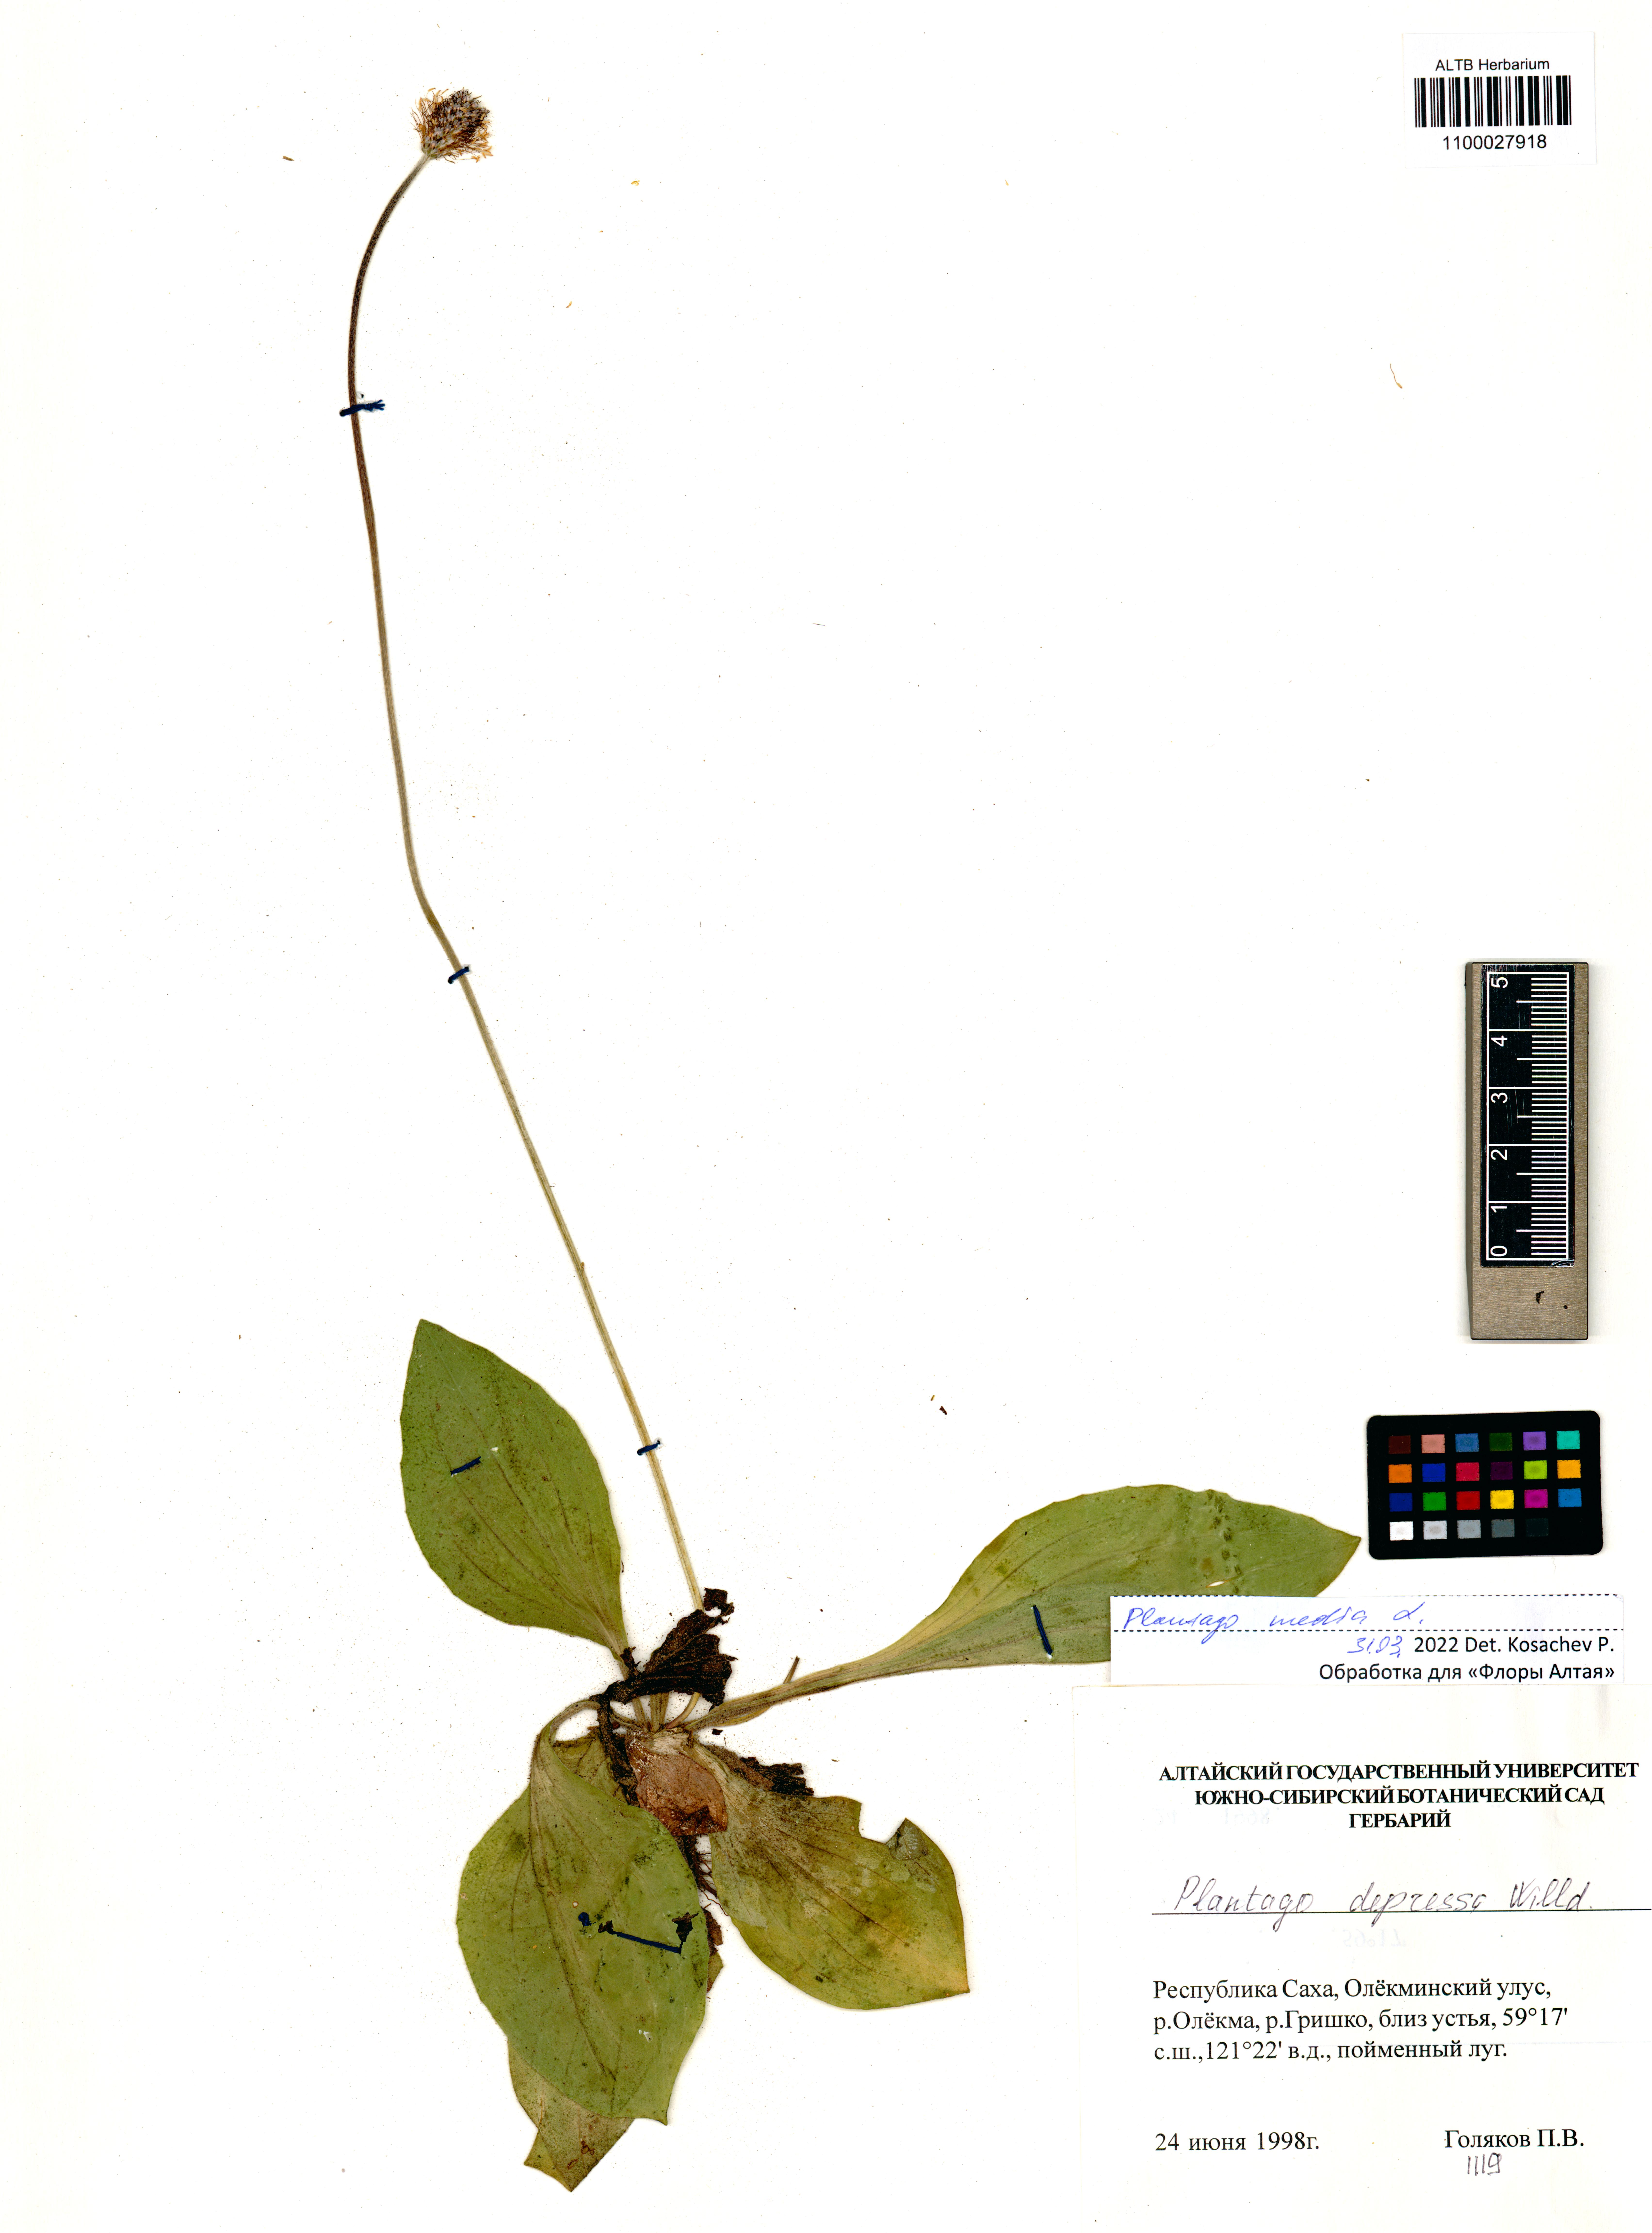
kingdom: Plantae
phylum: Tracheophyta
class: Magnoliopsida
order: Lamiales
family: Plantaginaceae
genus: Plantago
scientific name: Plantago media
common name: Hoary plantain
